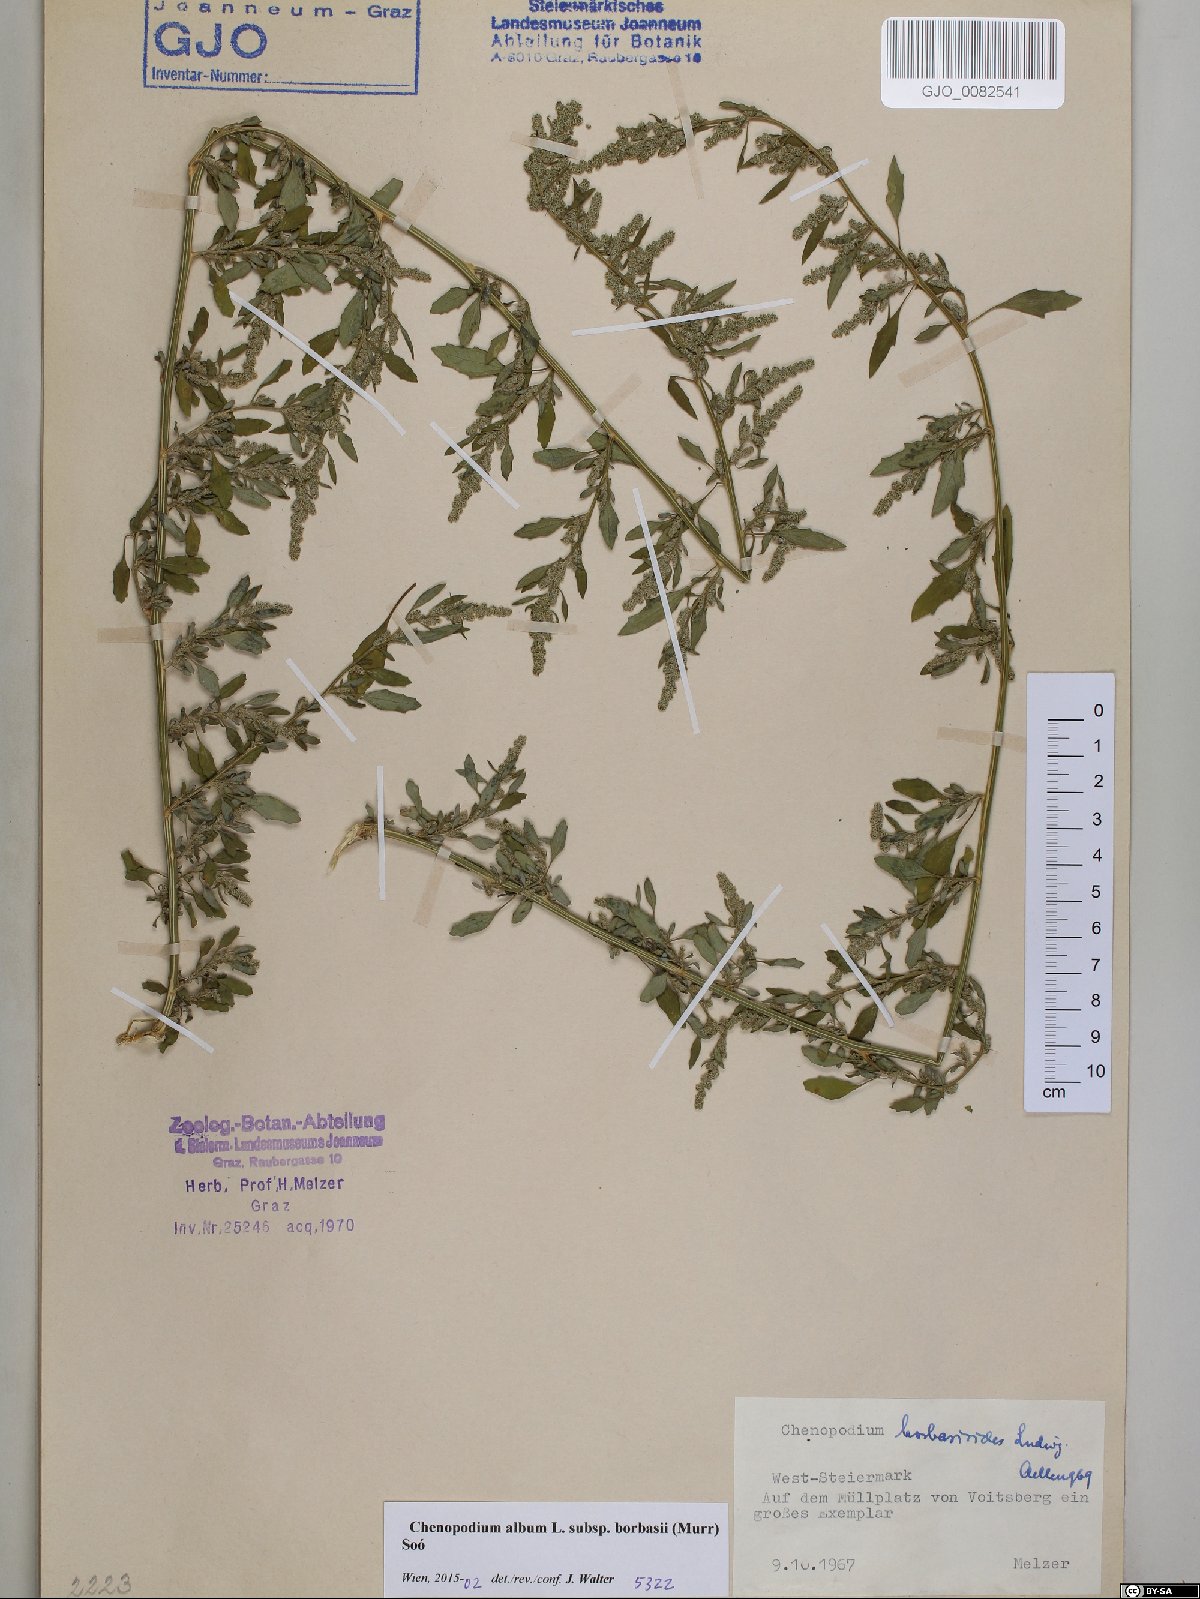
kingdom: Plantae
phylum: Tracheophyta
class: Magnoliopsida
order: Caryophyllales
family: Amaranthaceae
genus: Chenopodium
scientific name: Chenopodium borbasii
